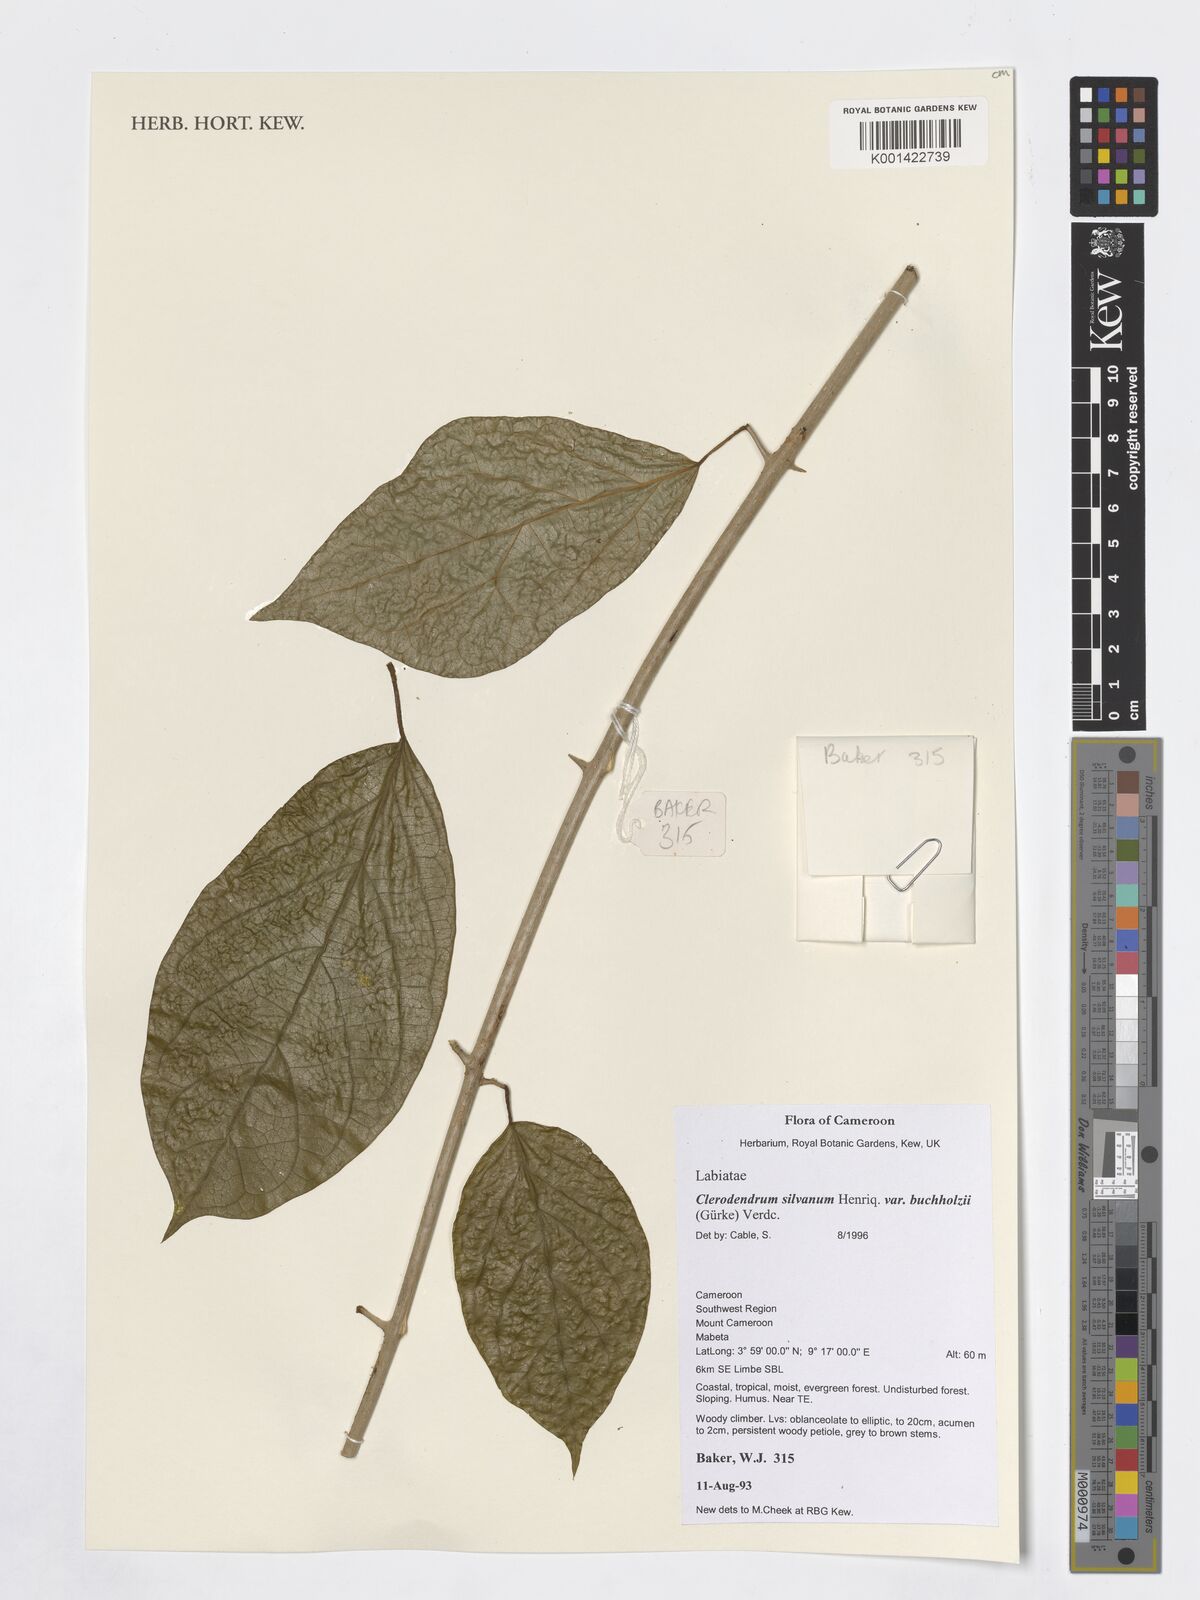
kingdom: Plantae
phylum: Tracheophyta
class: Magnoliopsida
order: Lamiales
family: Lamiaceae
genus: Clerodendrum
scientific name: Clerodendrum silvanum
